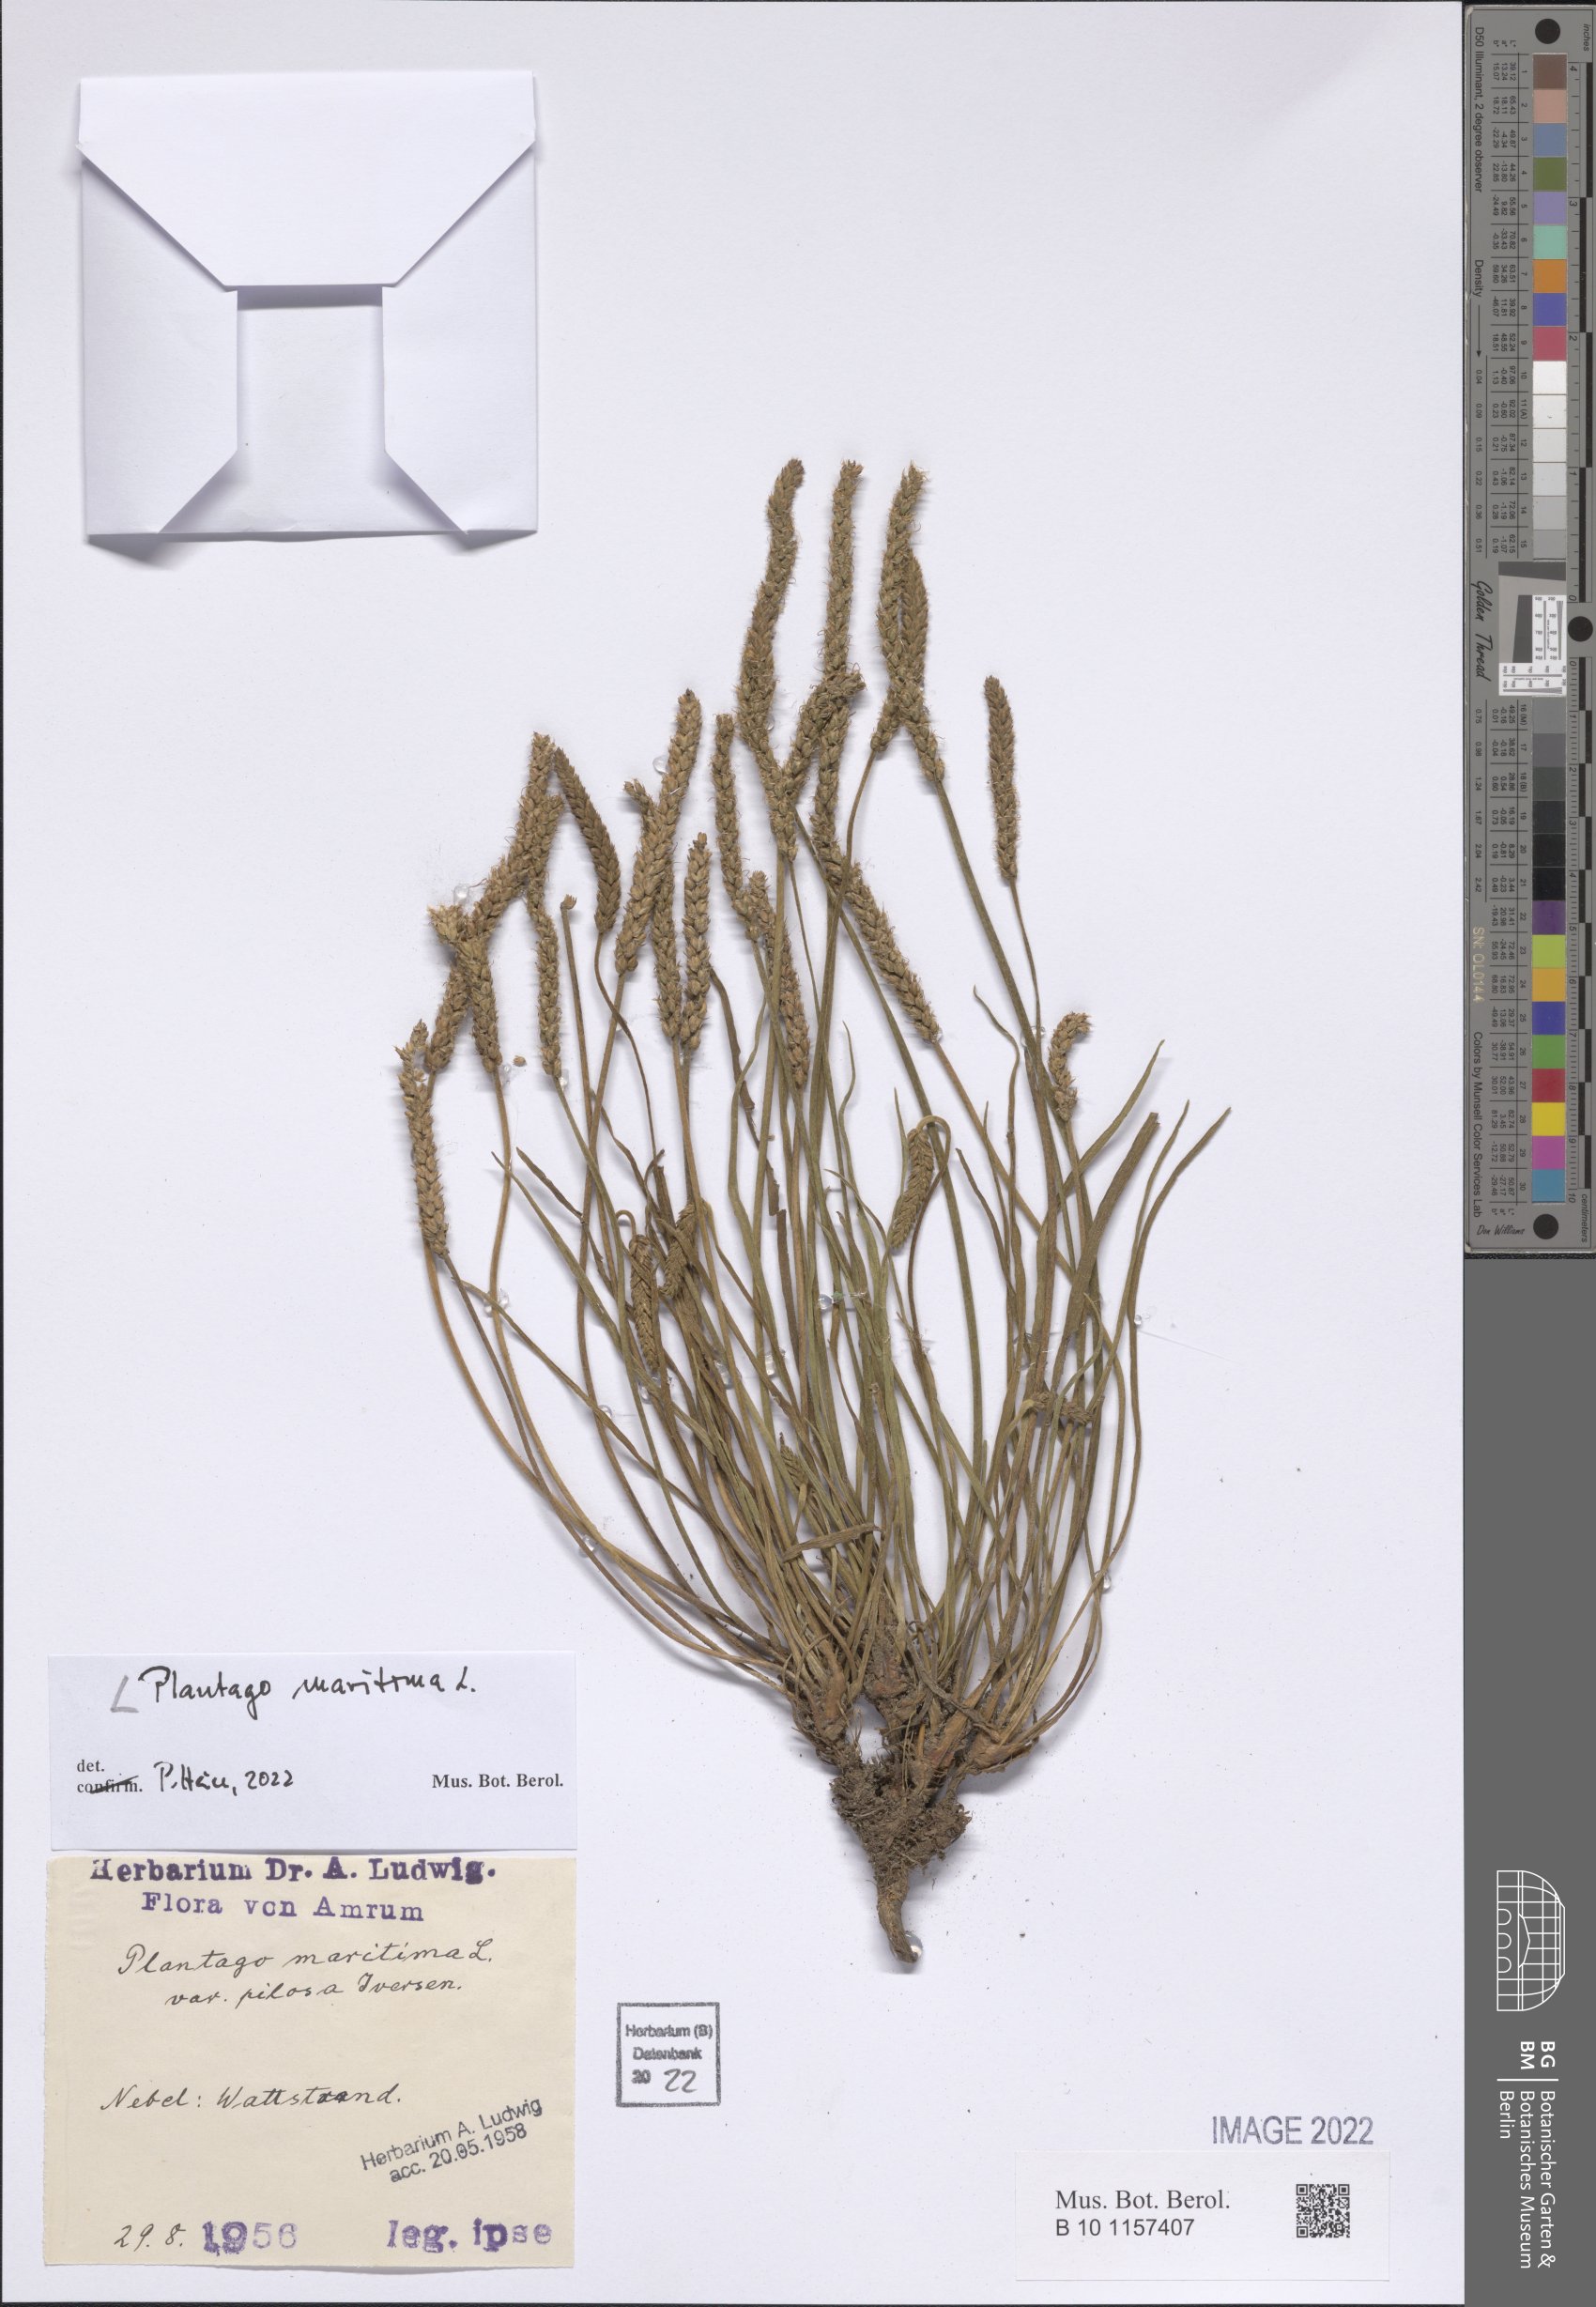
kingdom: Plantae
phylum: Tracheophyta
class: Magnoliopsida
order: Lamiales
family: Plantaginaceae
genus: Plantago
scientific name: Plantago maritima
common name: Sea plantain
